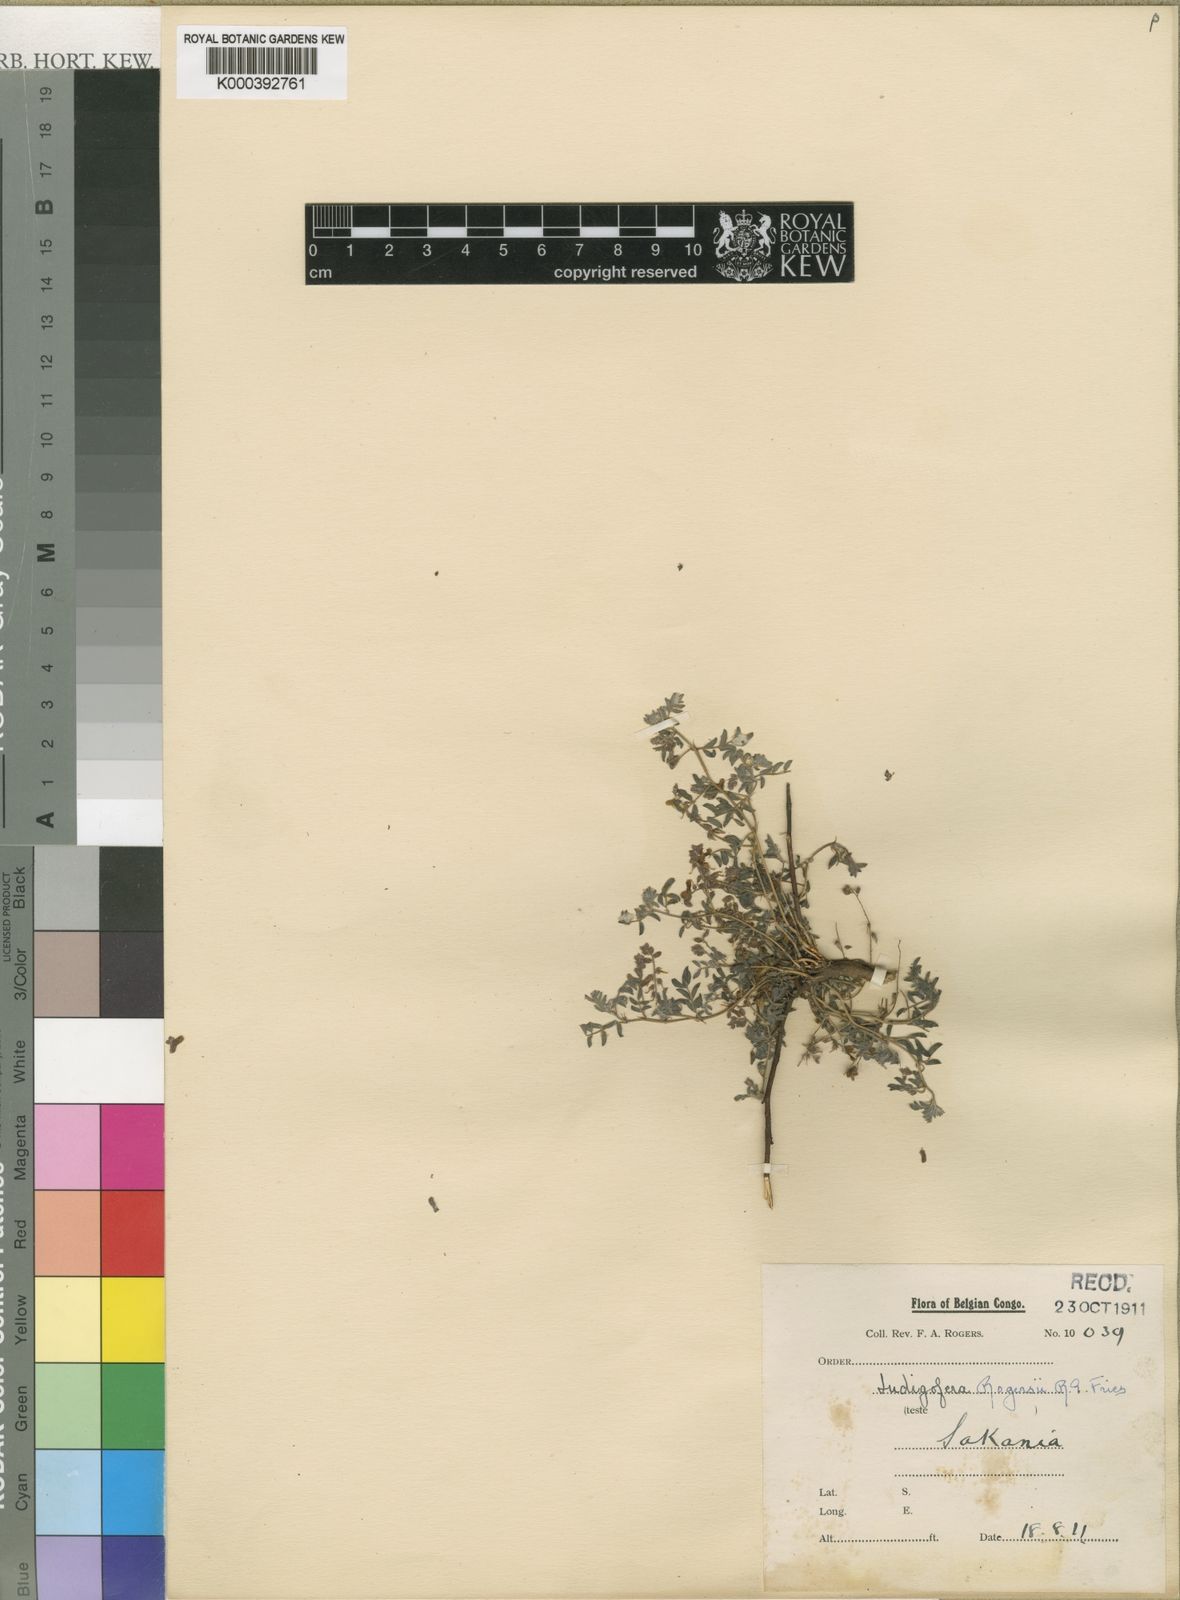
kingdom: Plantae
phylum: Tracheophyta
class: Magnoliopsida
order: Fabales
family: Fabaceae
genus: Indigofera
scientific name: Indigofera vicioides
